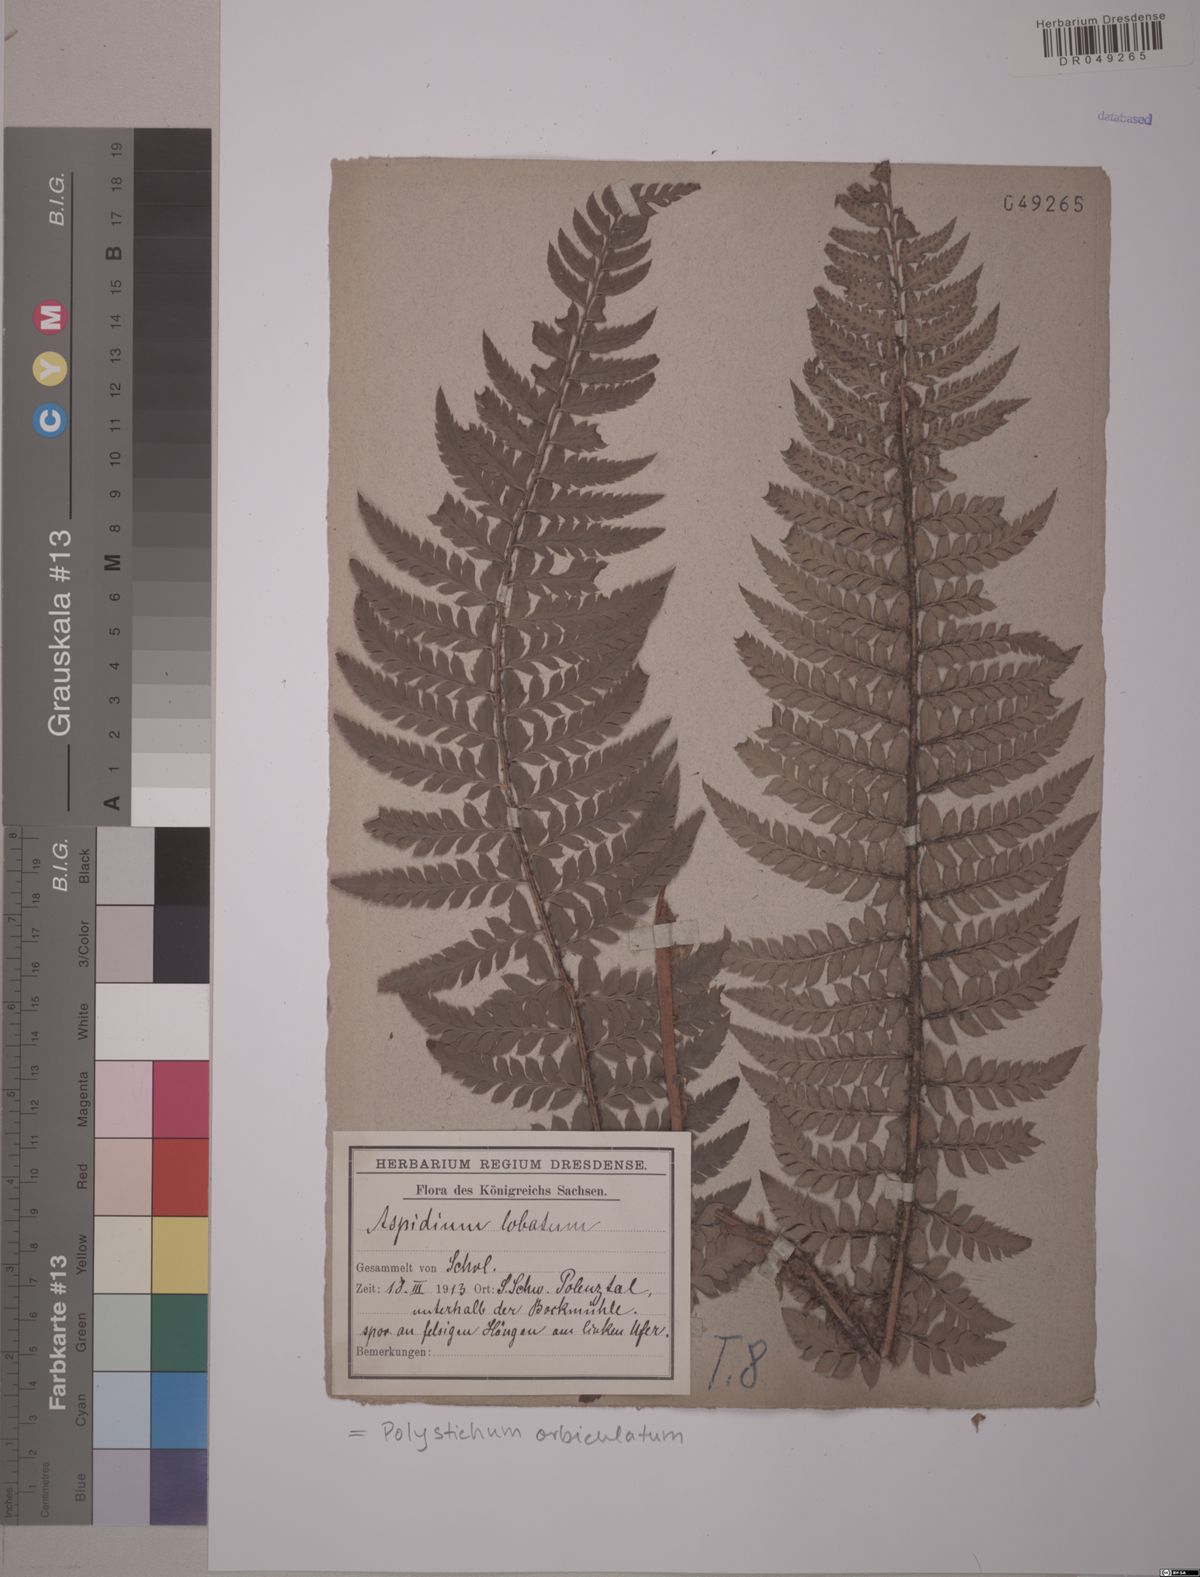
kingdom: Plantae
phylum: Tracheophyta
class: Polypodiopsida
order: Polypodiales
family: Dryopteridaceae
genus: Polystichum
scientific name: Polystichum aculeatum
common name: Hard shield-fern
